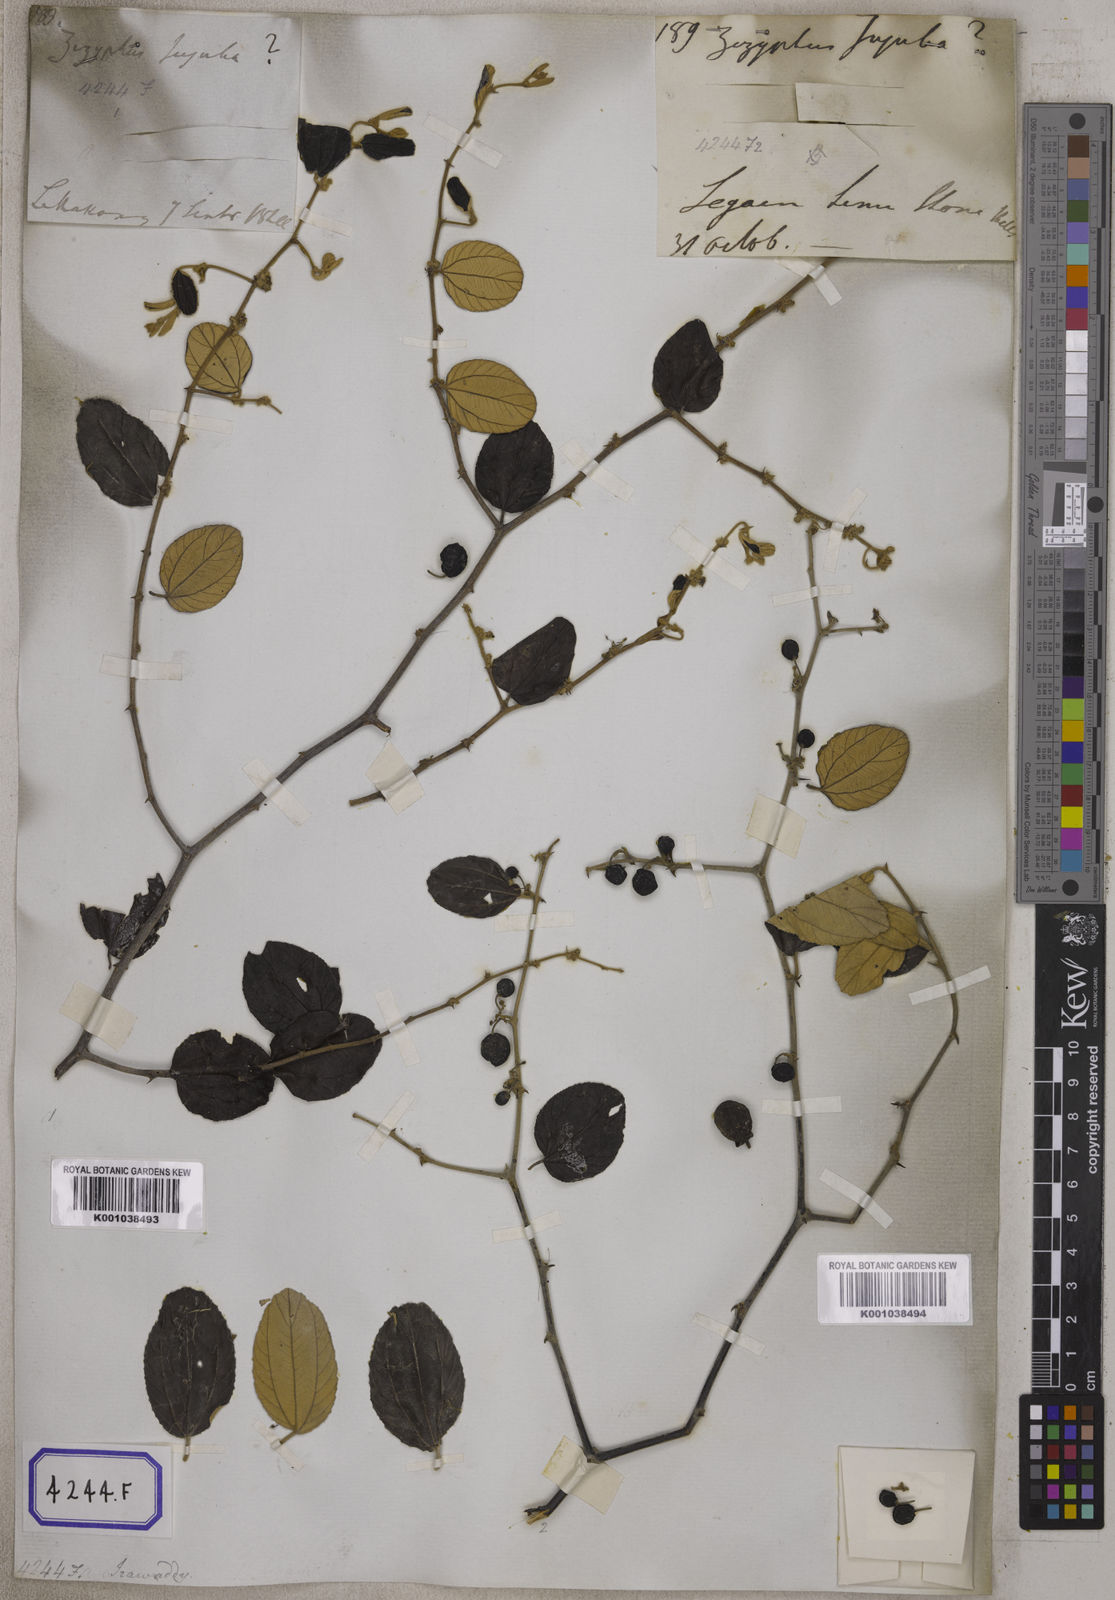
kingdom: Plantae
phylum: Tracheophyta
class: Magnoliopsida
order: Rosales
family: Rhamnaceae
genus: Ziziphus
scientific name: Ziziphus
